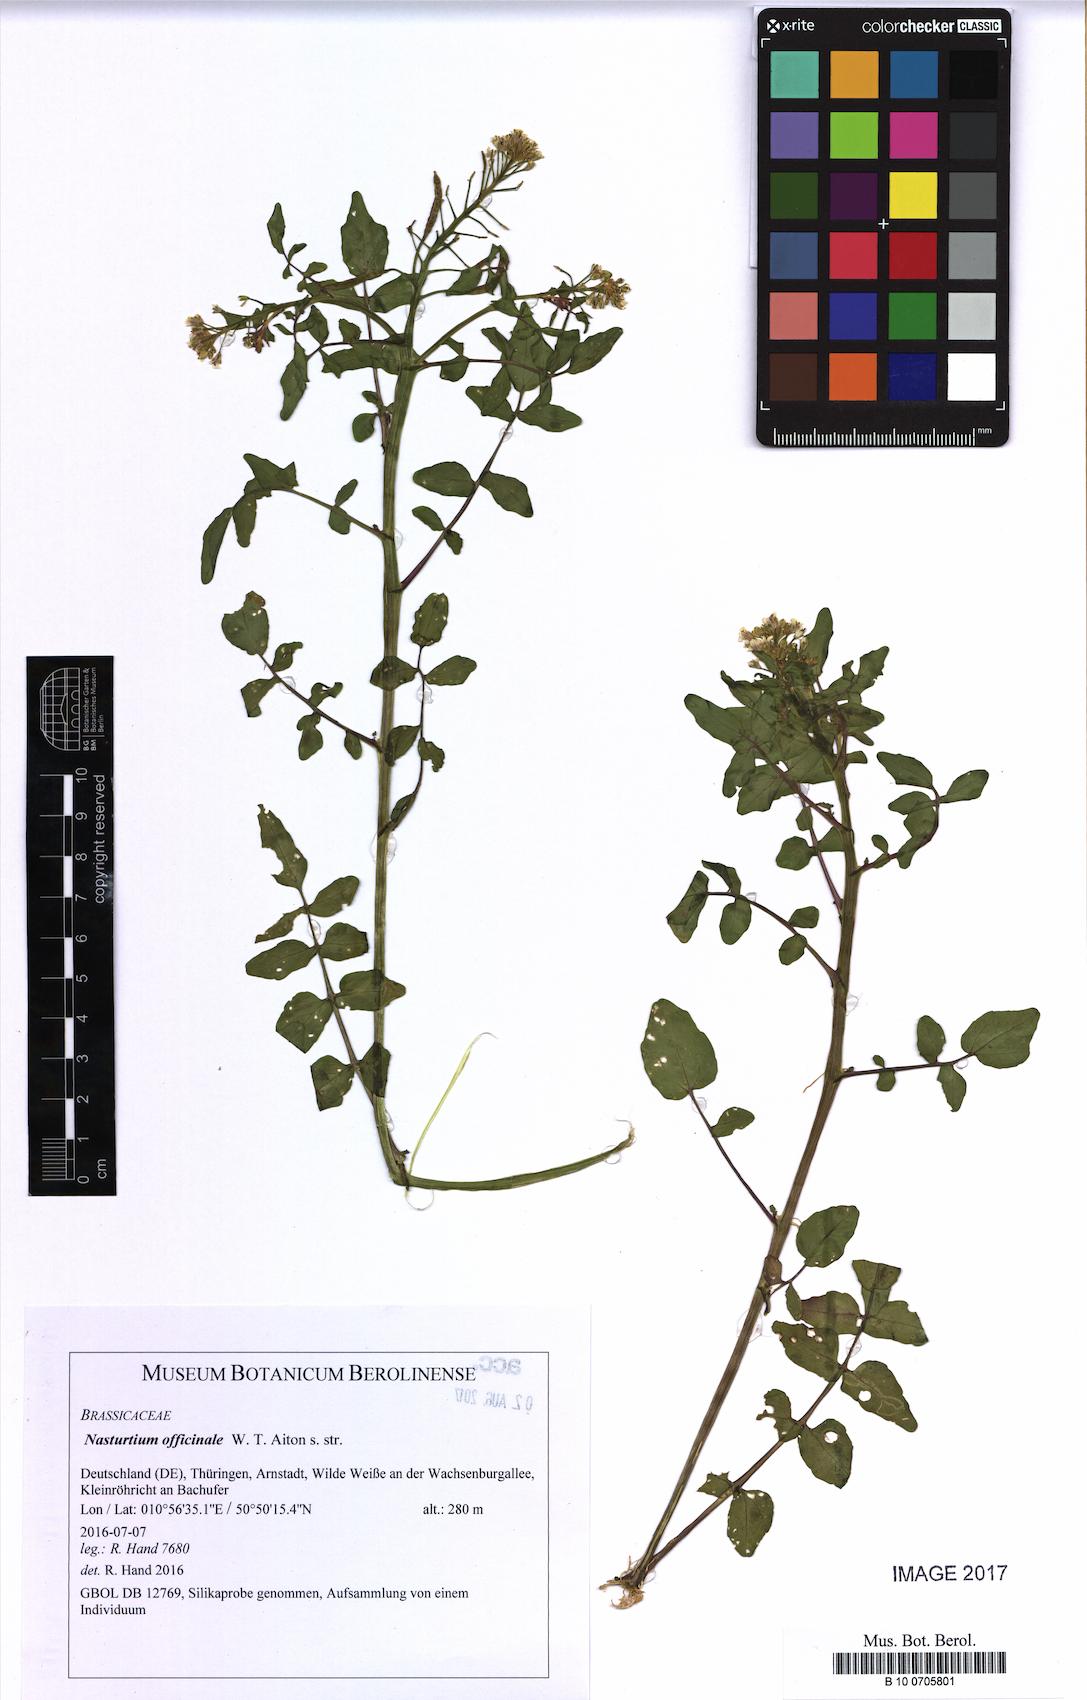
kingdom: Plantae
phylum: Tracheophyta
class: Magnoliopsida
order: Brassicales
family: Brassicaceae
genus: Nasturtium
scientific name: Nasturtium officinale
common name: Watercress
